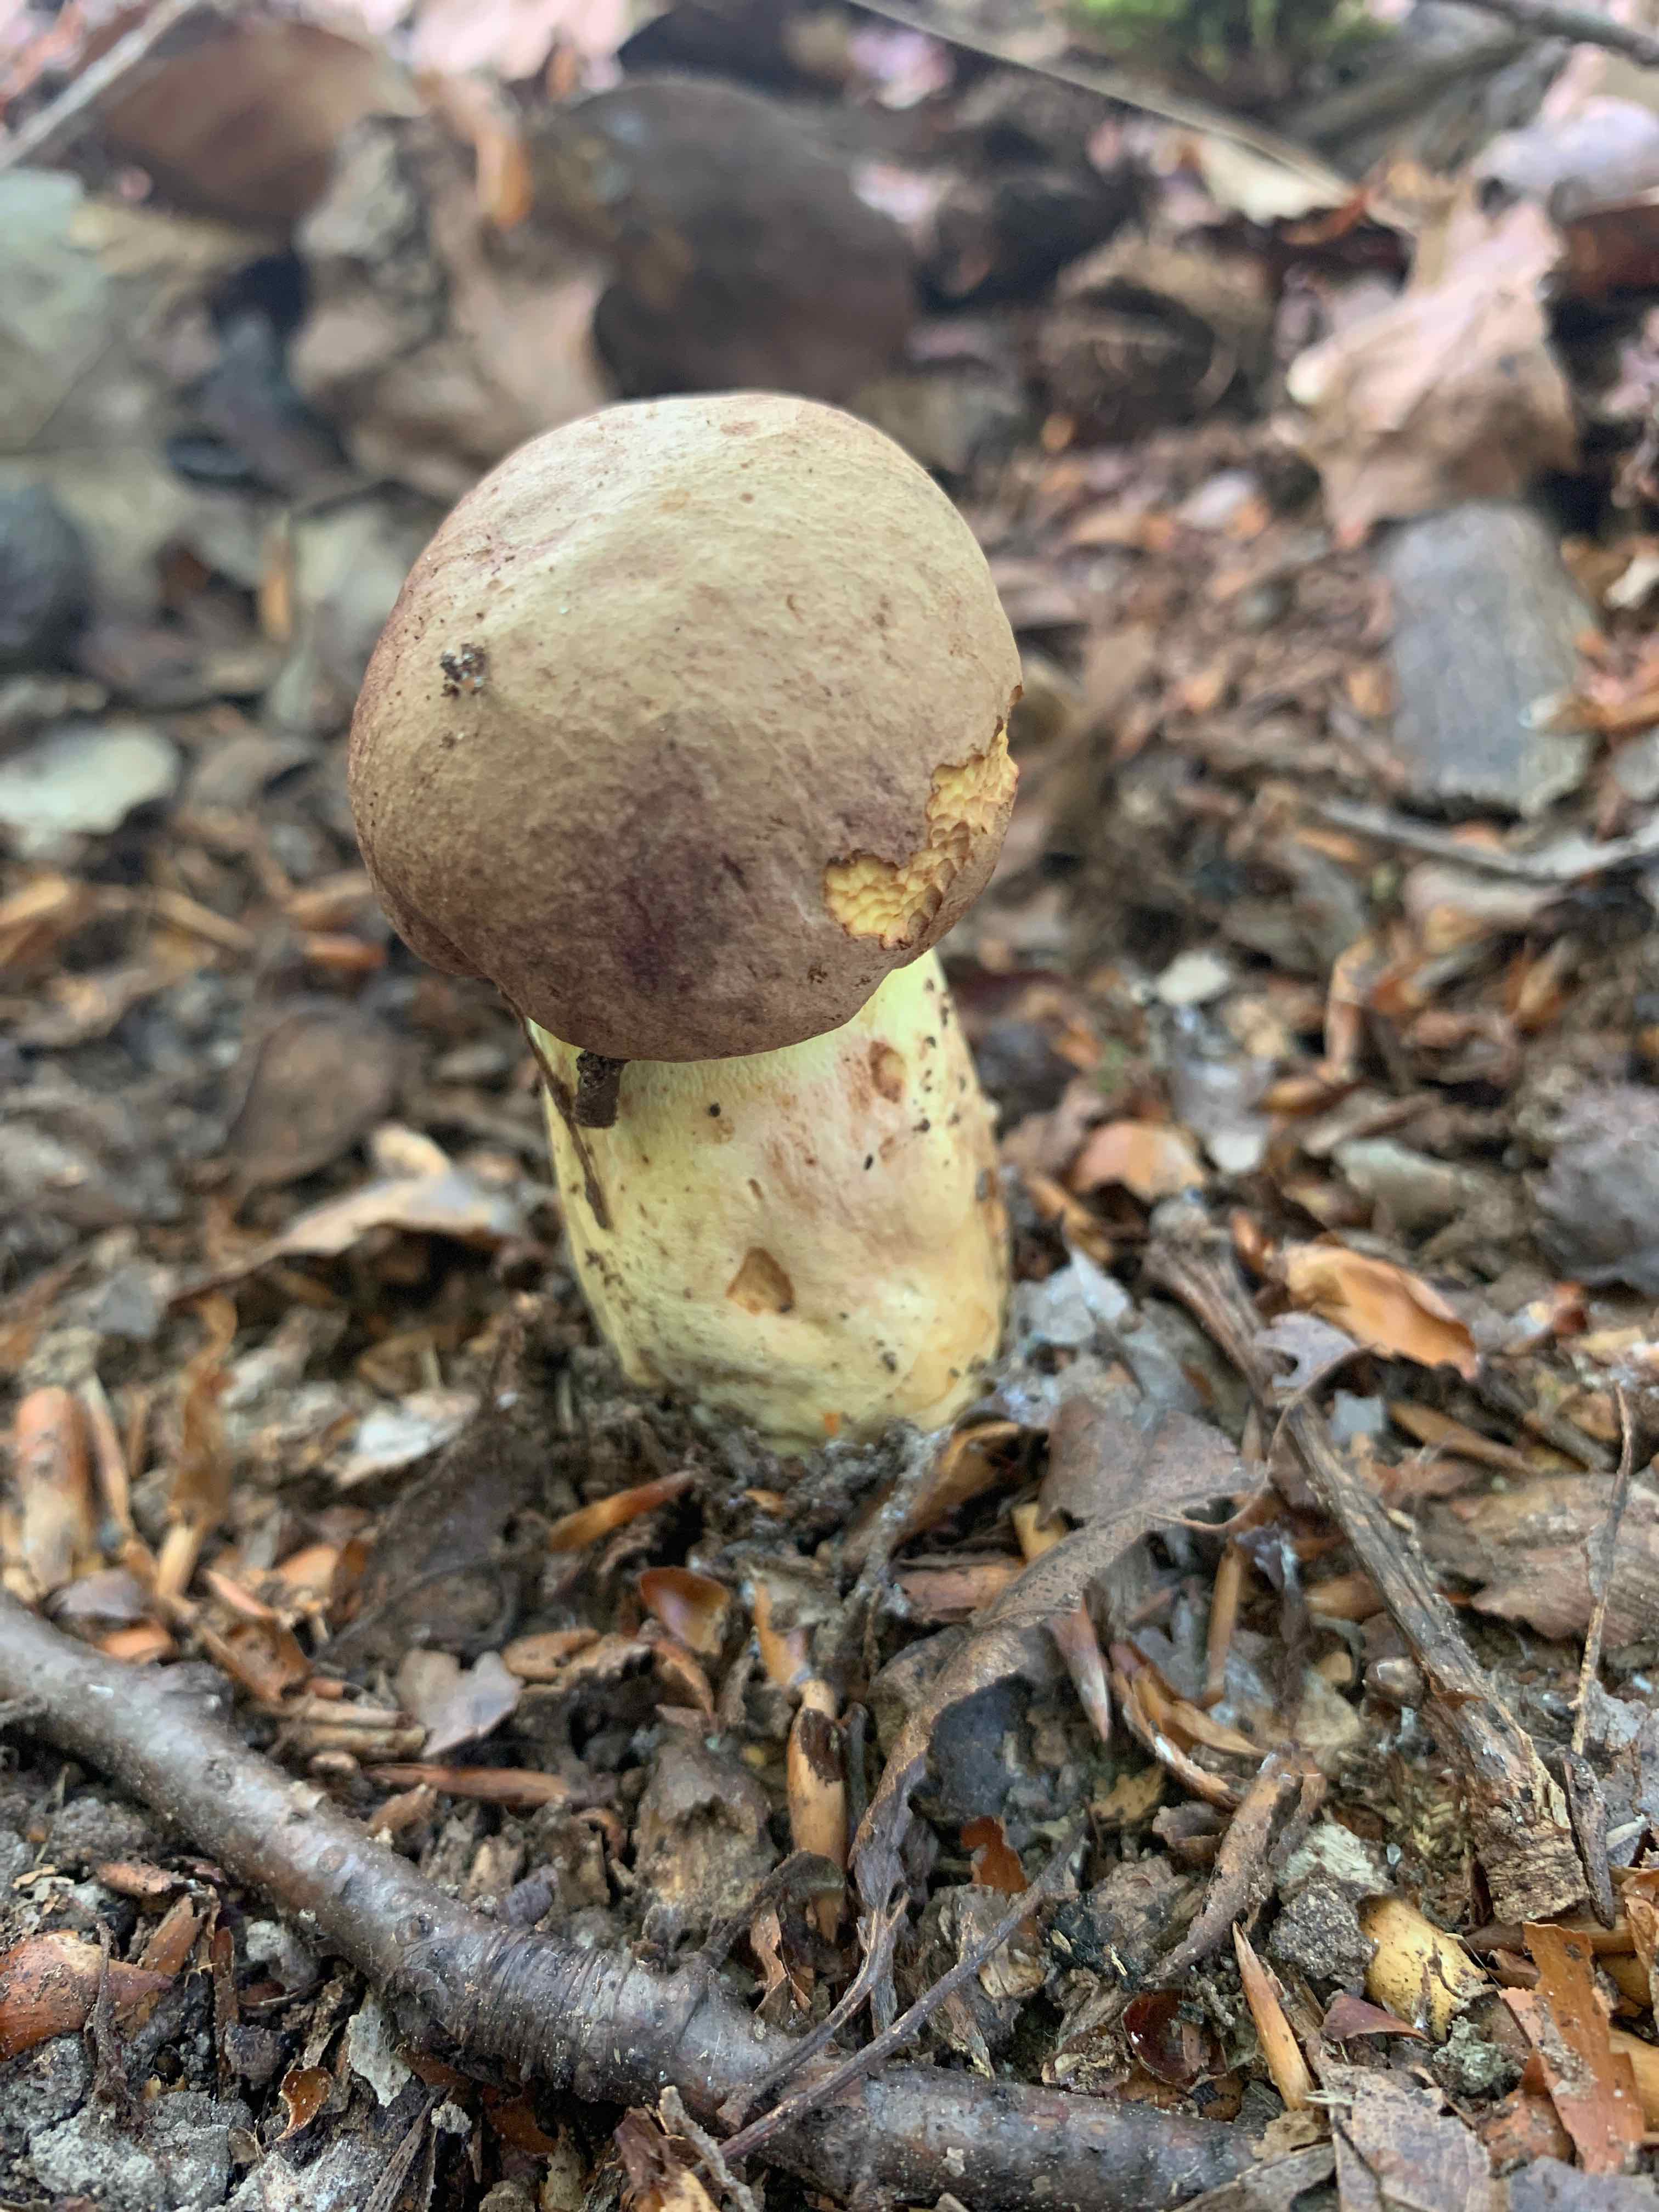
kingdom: Fungi
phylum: Basidiomycota
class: Agaricomycetes
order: Boletales
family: Boletaceae
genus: Butyriboletus
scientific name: Butyriboletus appendiculatus
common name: tenstokket rørhat
